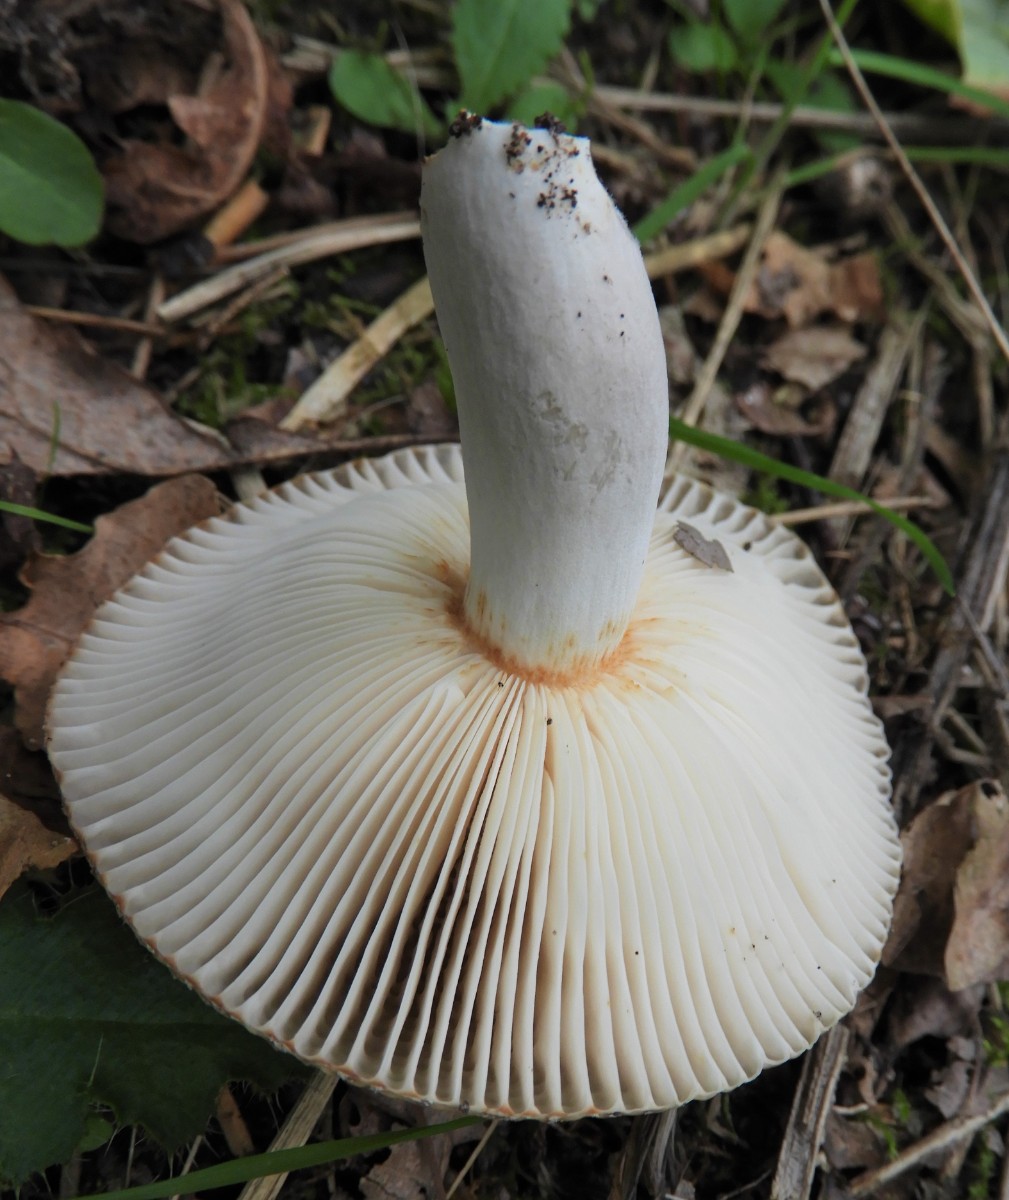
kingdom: Fungi
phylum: Basidiomycota
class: Agaricomycetes
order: Russulales
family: Russulaceae
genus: Russula
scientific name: Russula amoenolens
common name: skarp kam-skørhat
